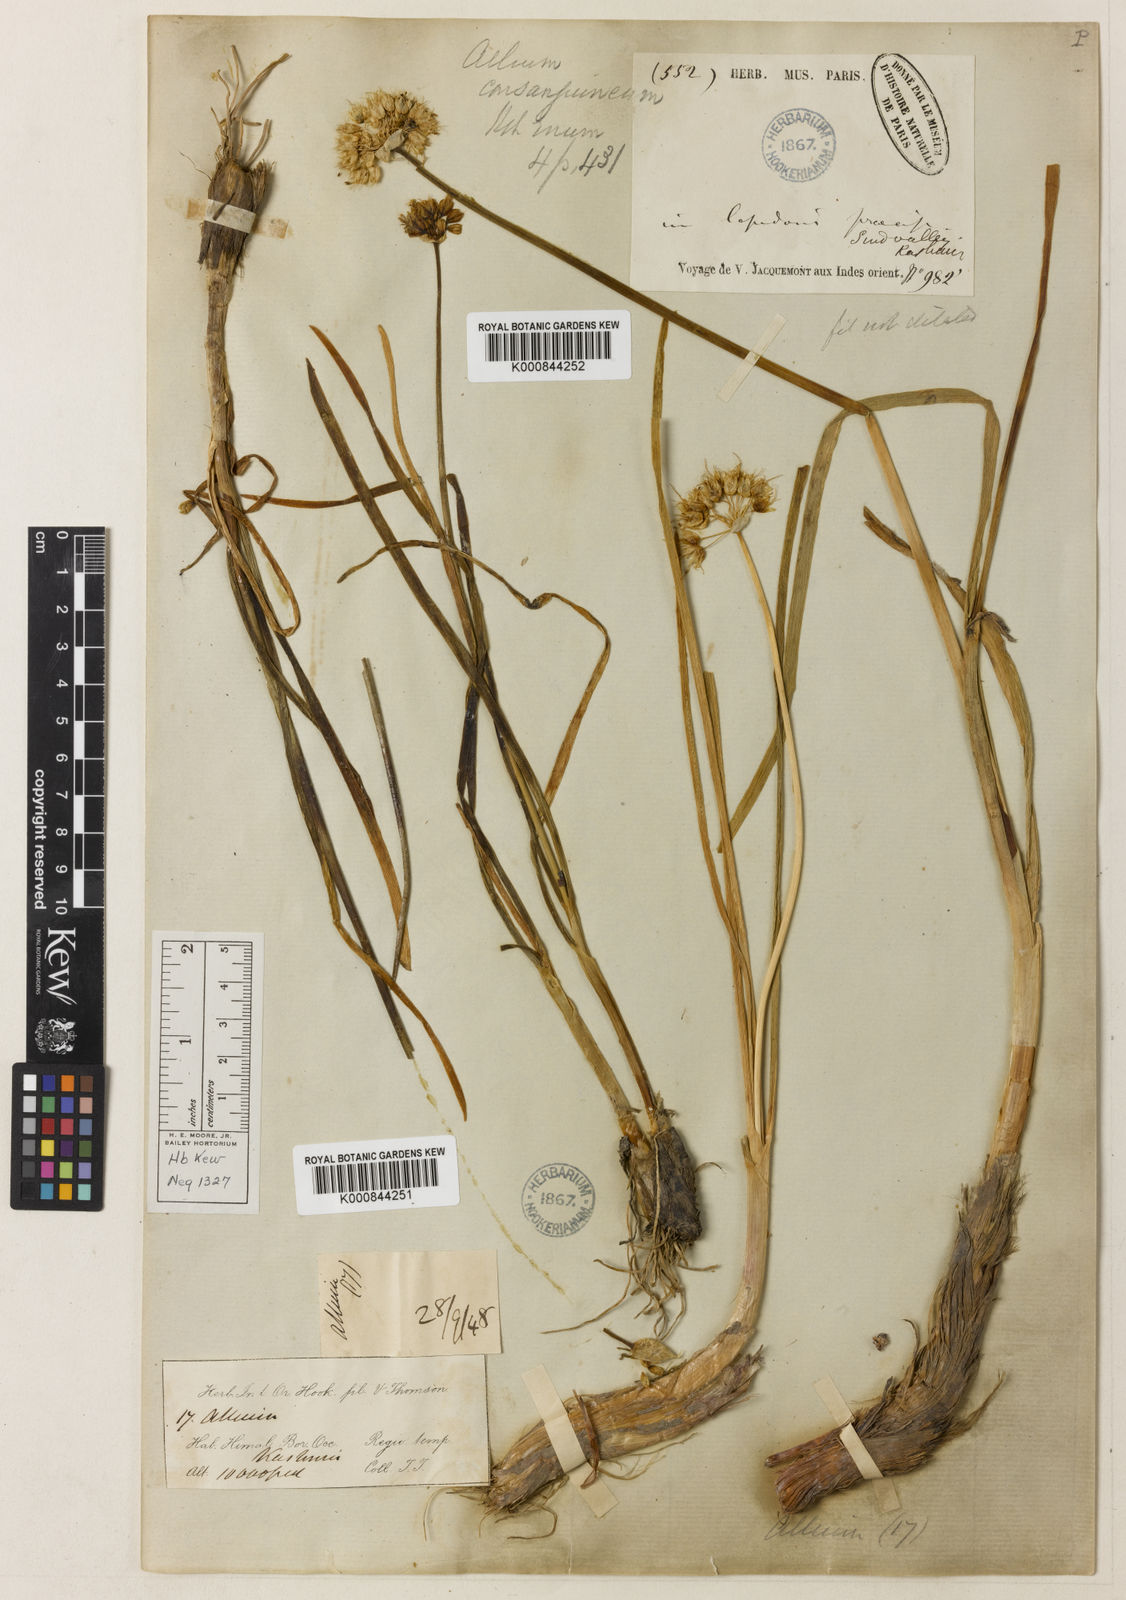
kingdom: Plantae
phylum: Tracheophyta
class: Liliopsida
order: Asparagales
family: Amaryllidaceae
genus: Allium
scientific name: Allium consanguineum
